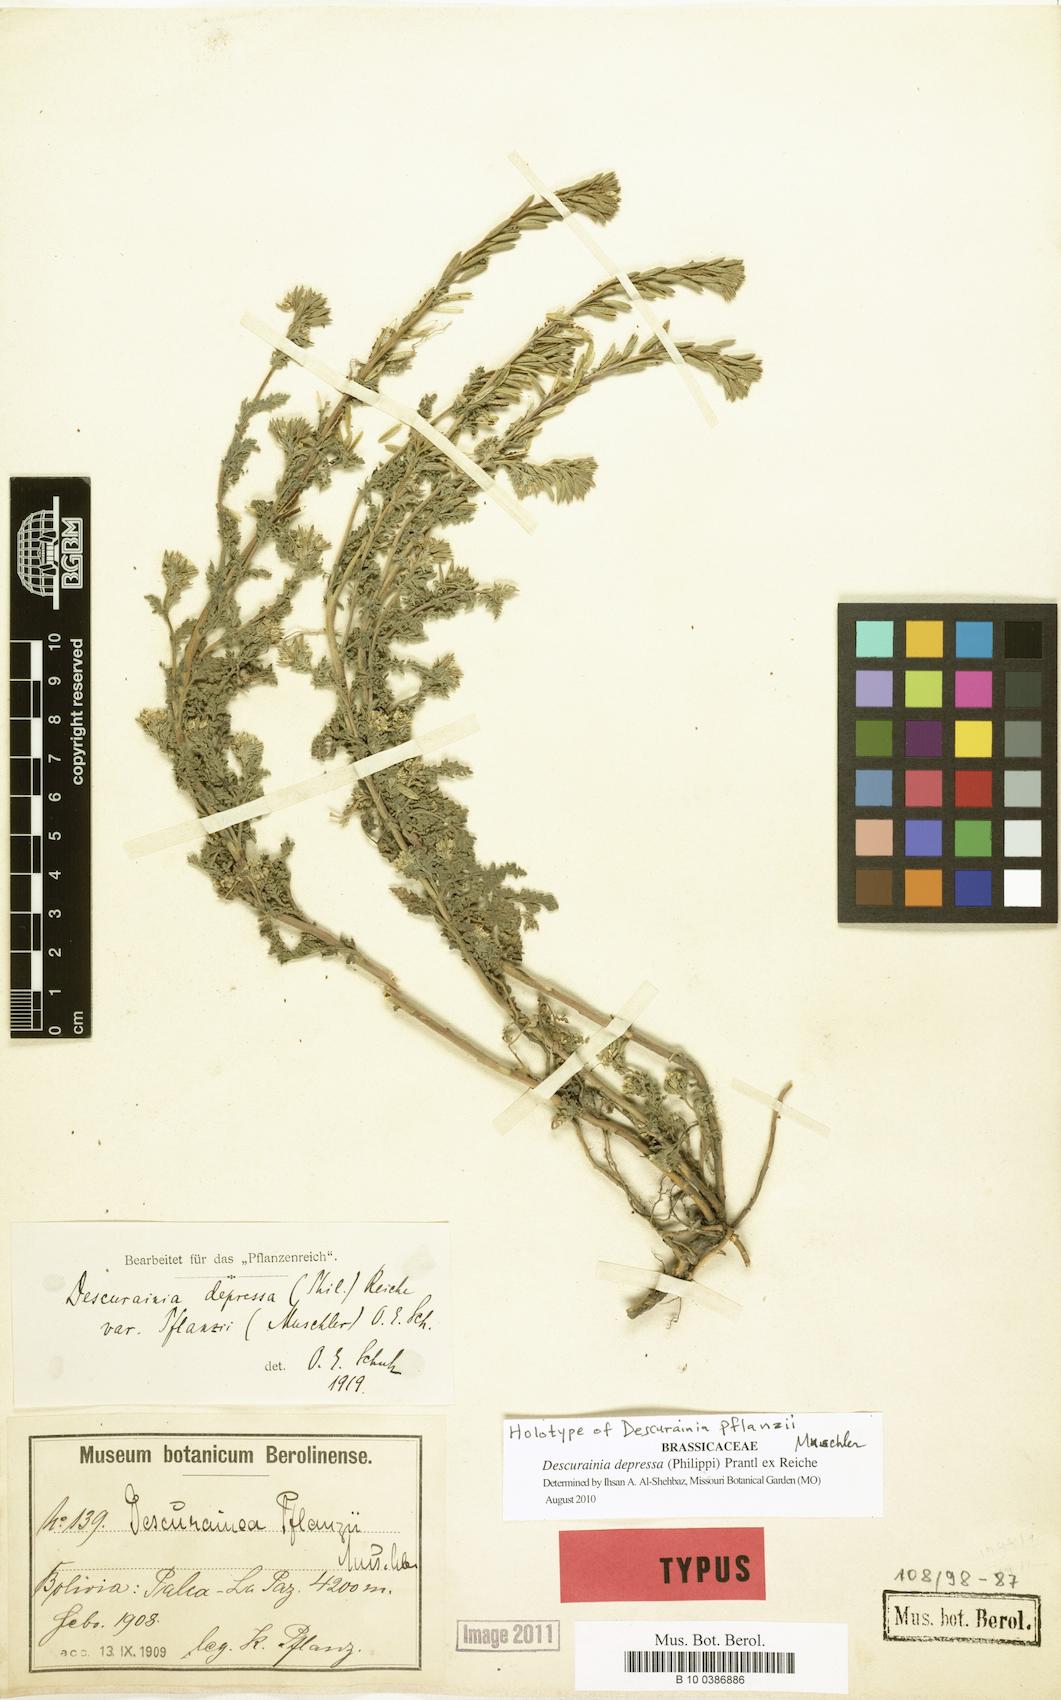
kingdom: Plantae
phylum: Tracheophyta
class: Magnoliopsida
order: Brassicales
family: Brassicaceae
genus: Descurainia
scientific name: Descurainia depressa
